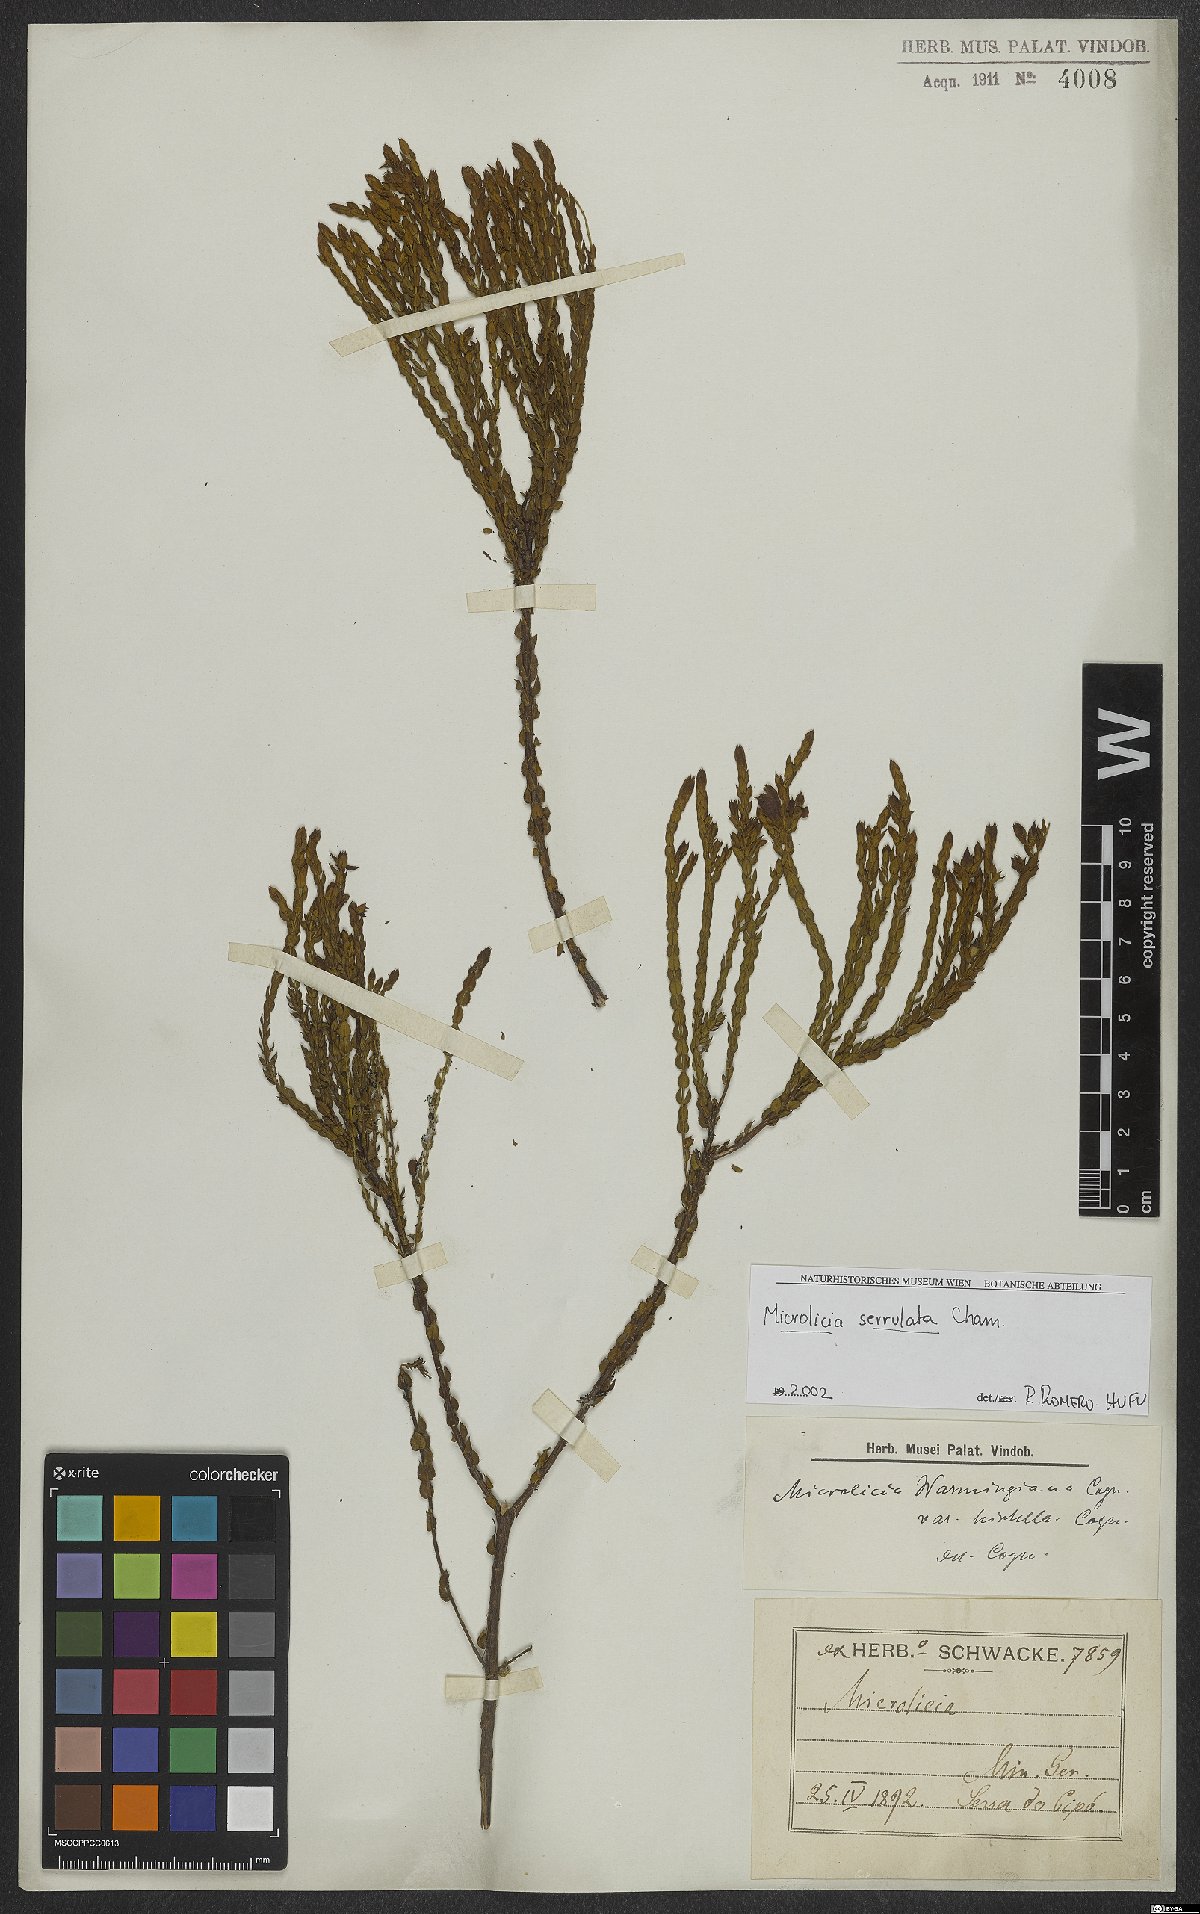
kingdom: Plantae
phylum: Tracheophyta
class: Magnoliopsida
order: Myrtales
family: Melastomataceae
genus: Microlicia
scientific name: Microlicia serrulata
